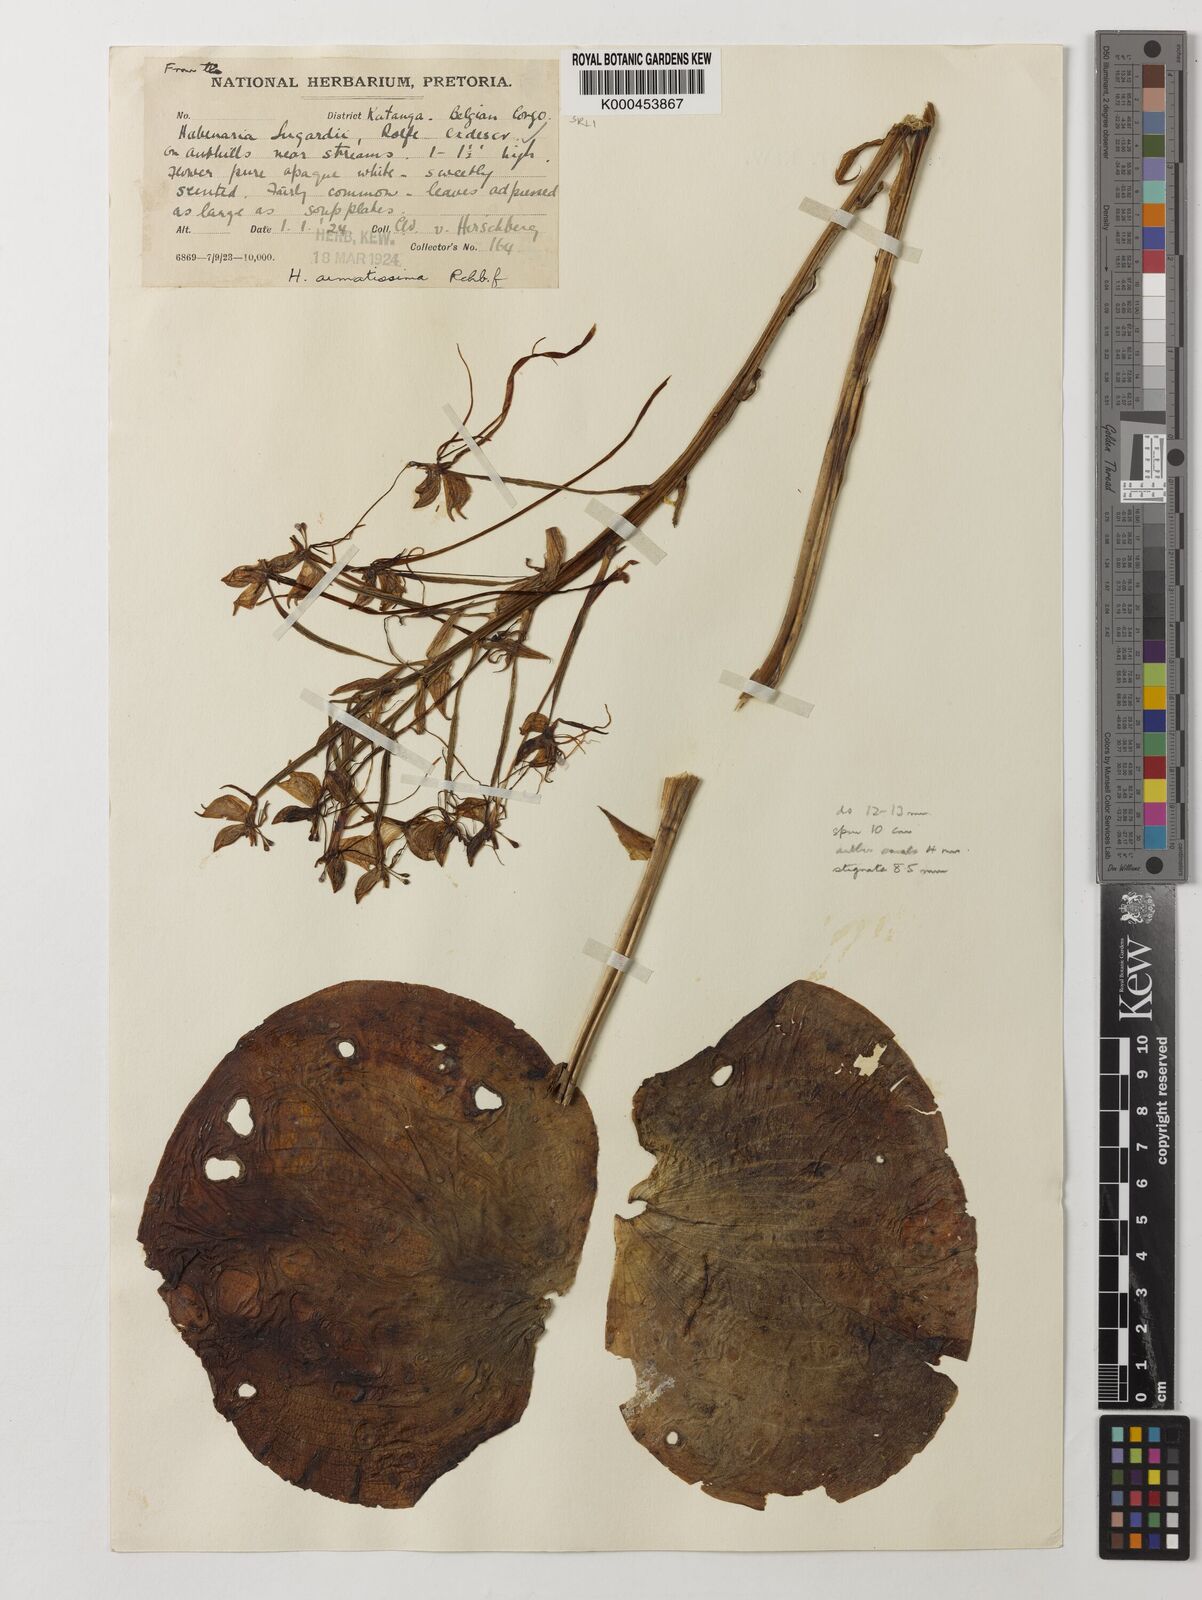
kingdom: Plantae
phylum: Tracheophyta
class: Liliopsida
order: Asparagales
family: Orchidaceae
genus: Habenaria
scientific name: Habenaria armatissima
